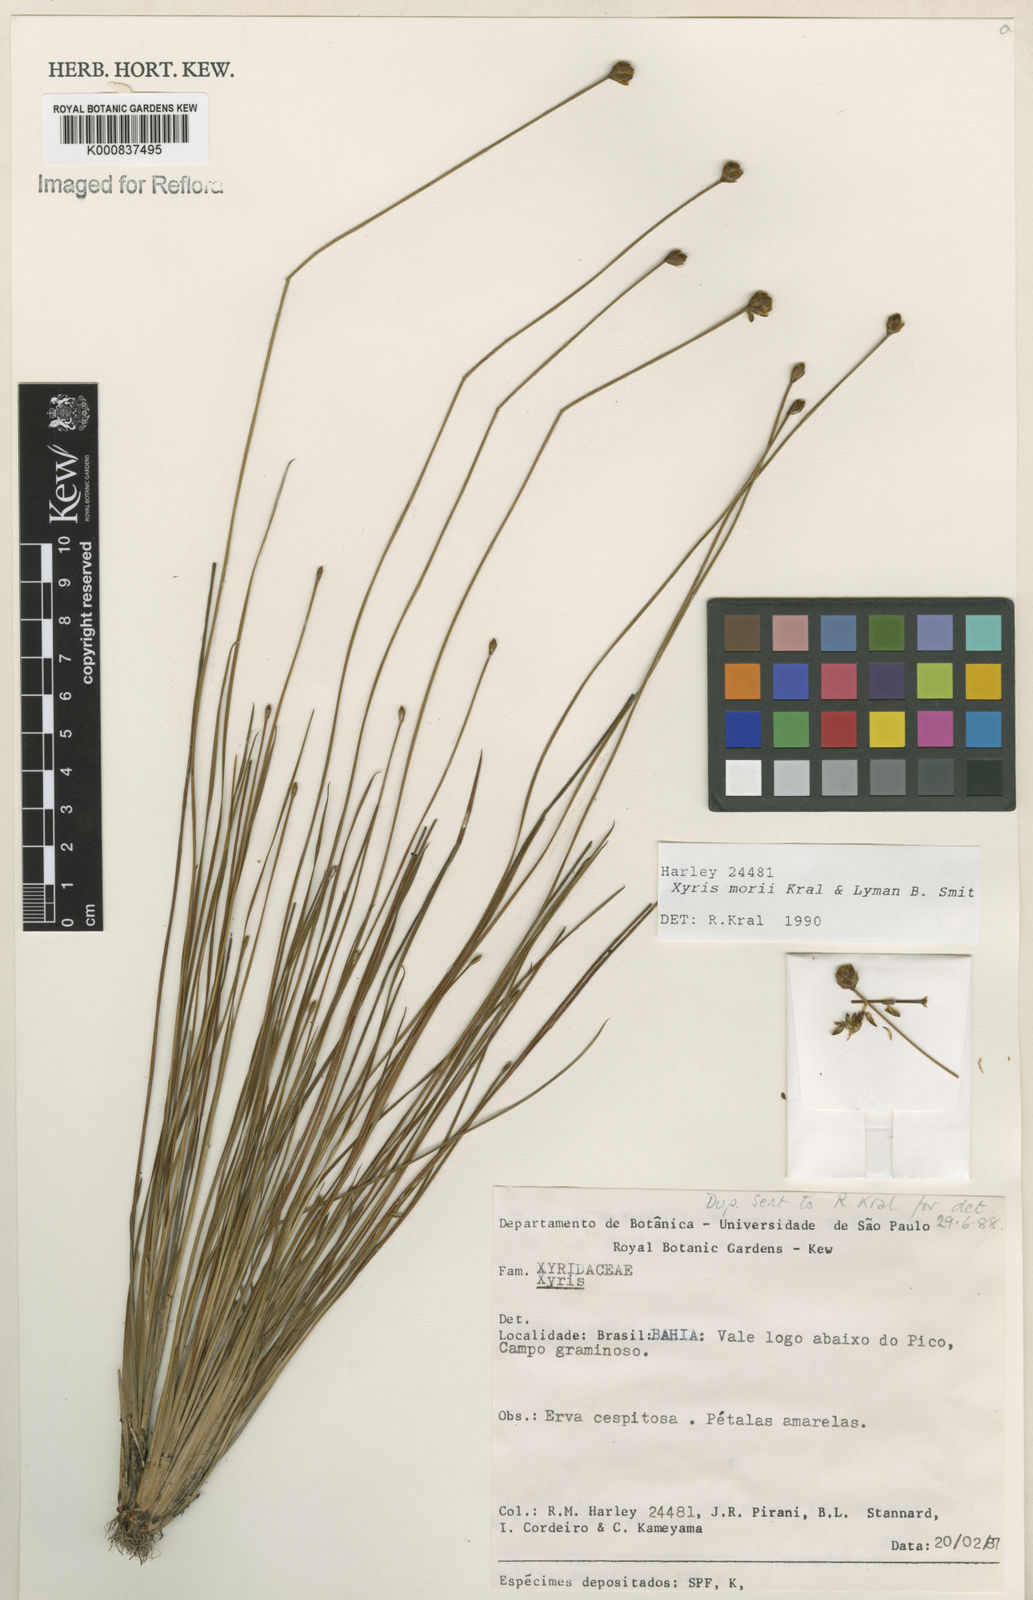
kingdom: Plantae
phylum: Tracheophyta
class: Liliopsida
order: Poales
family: Xyridaceae
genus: Xyris
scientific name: Xyris morii
